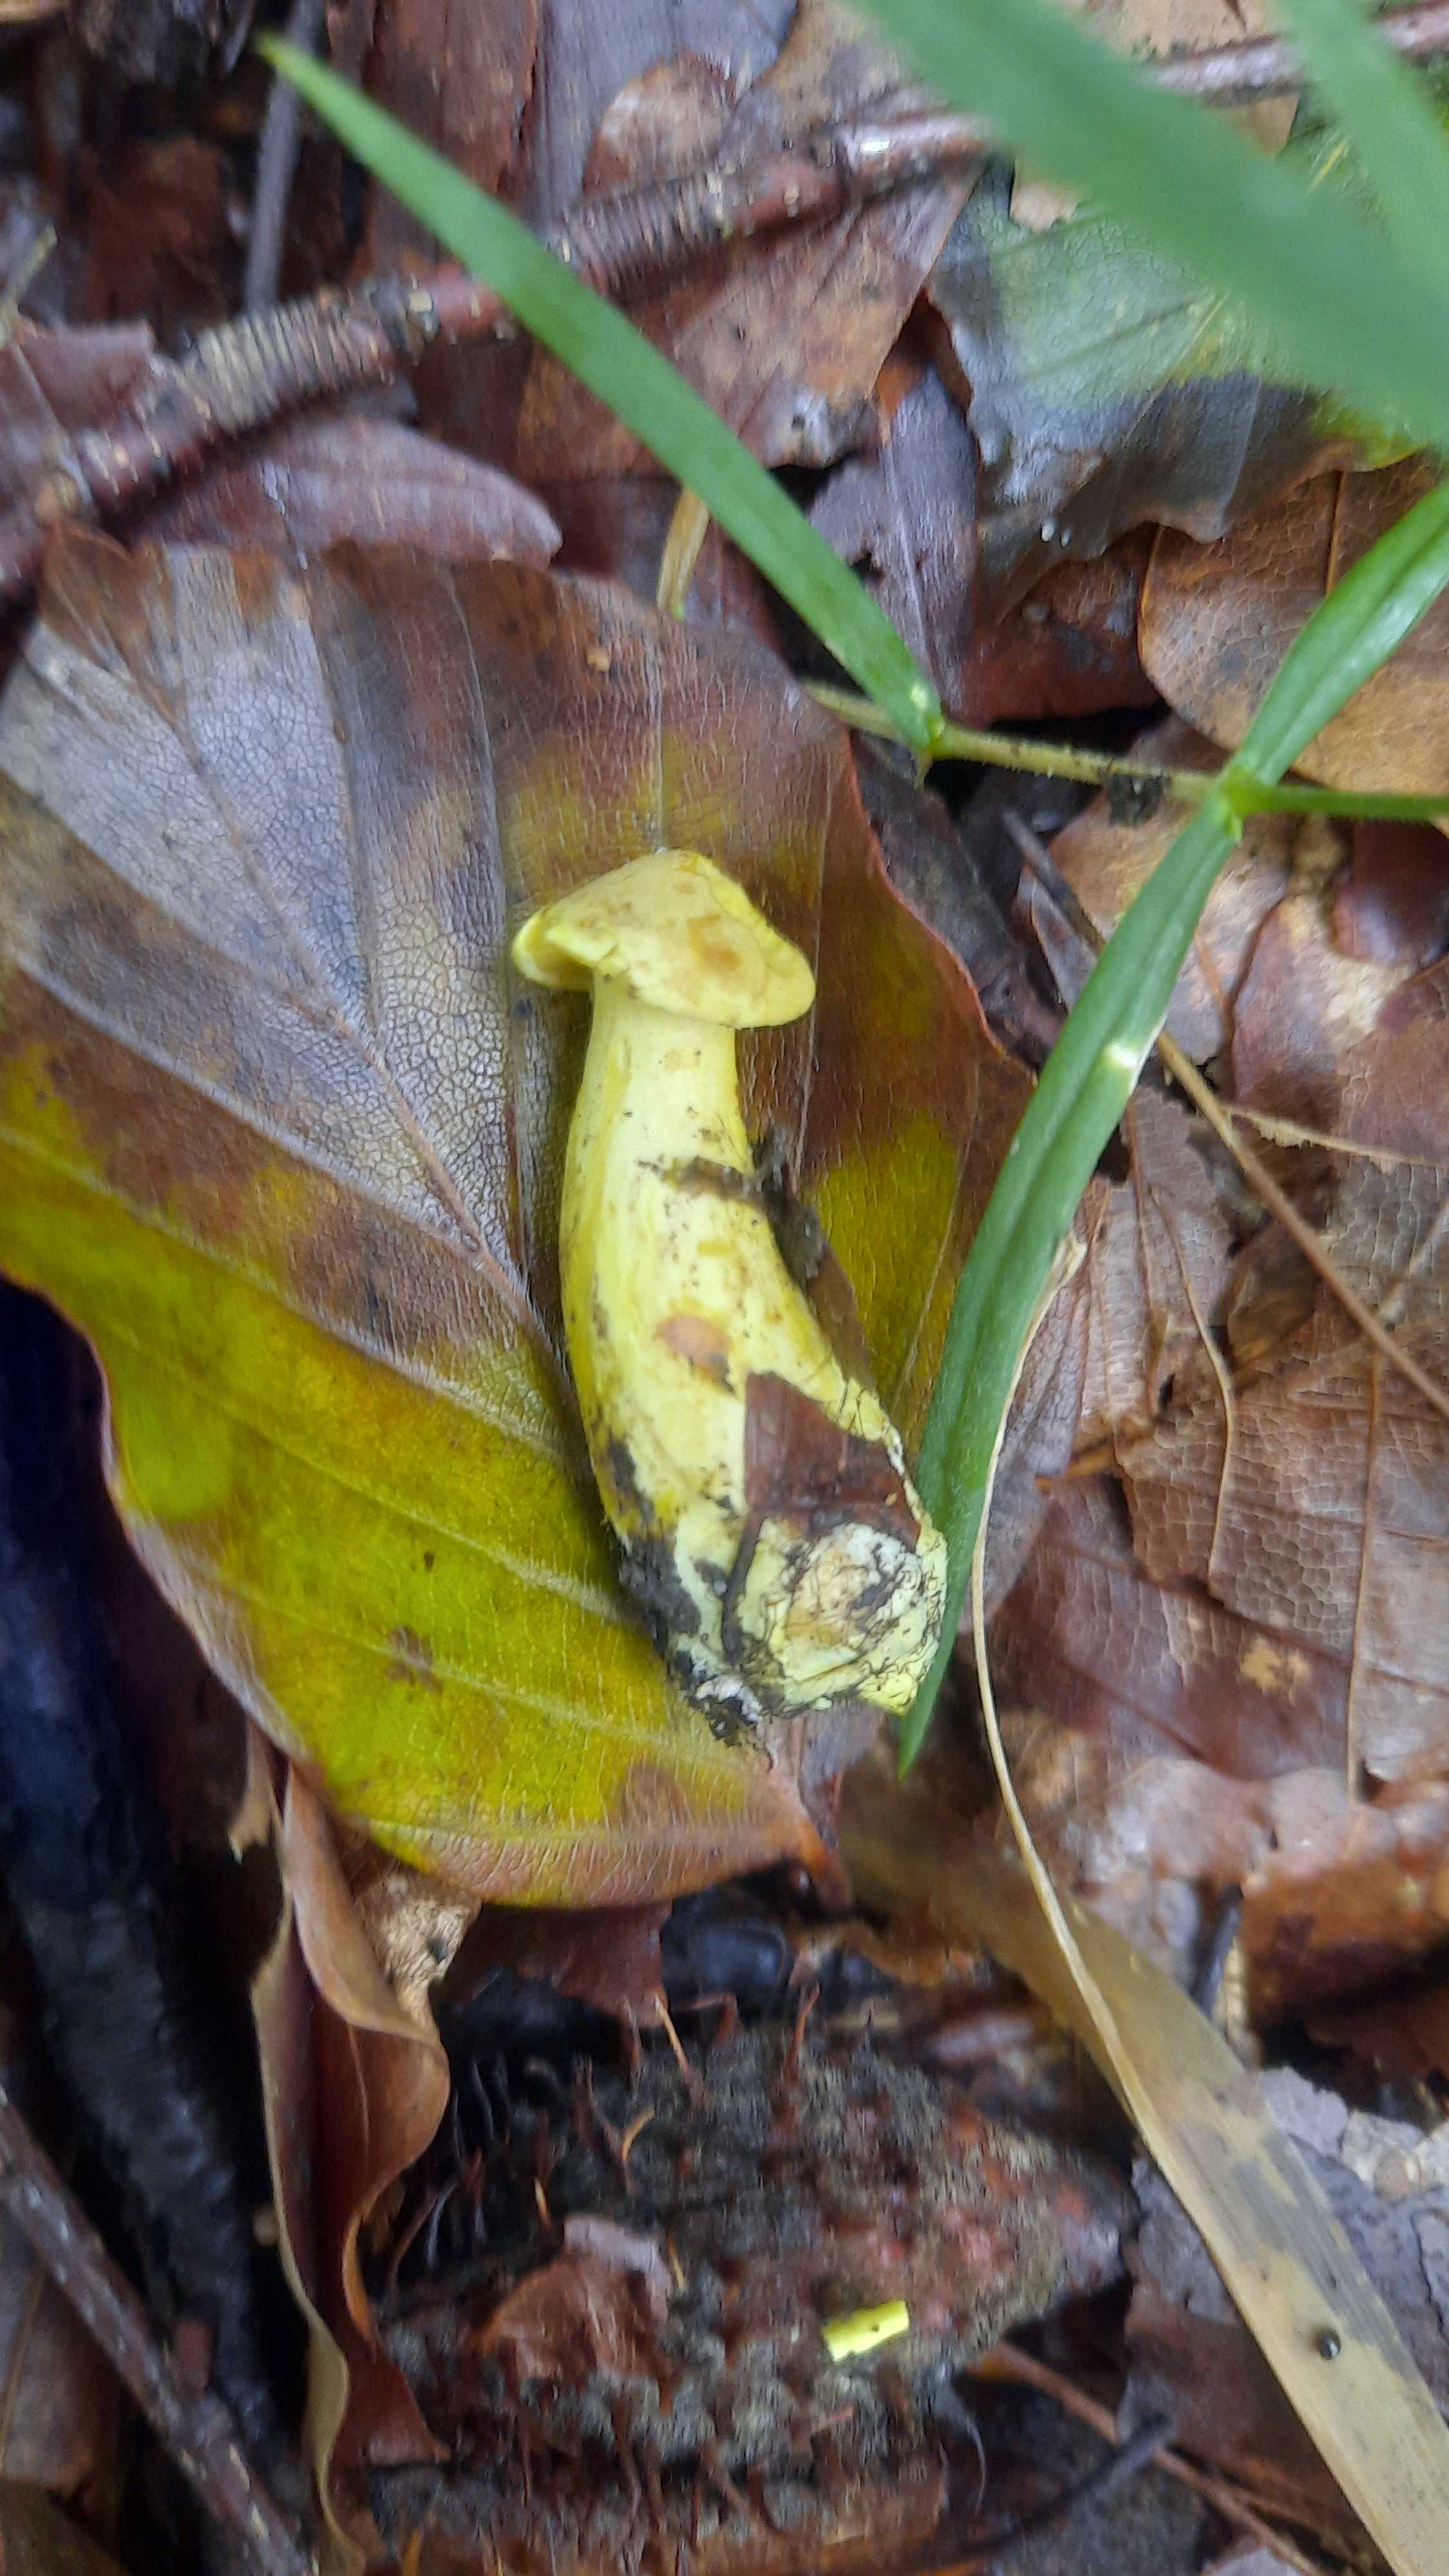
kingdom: Fungi
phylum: Basidiomycota
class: Agaricomycetes
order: Agaricales
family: Tricholomataceae
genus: Tricholoma
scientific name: Tricholoma sulphureum
